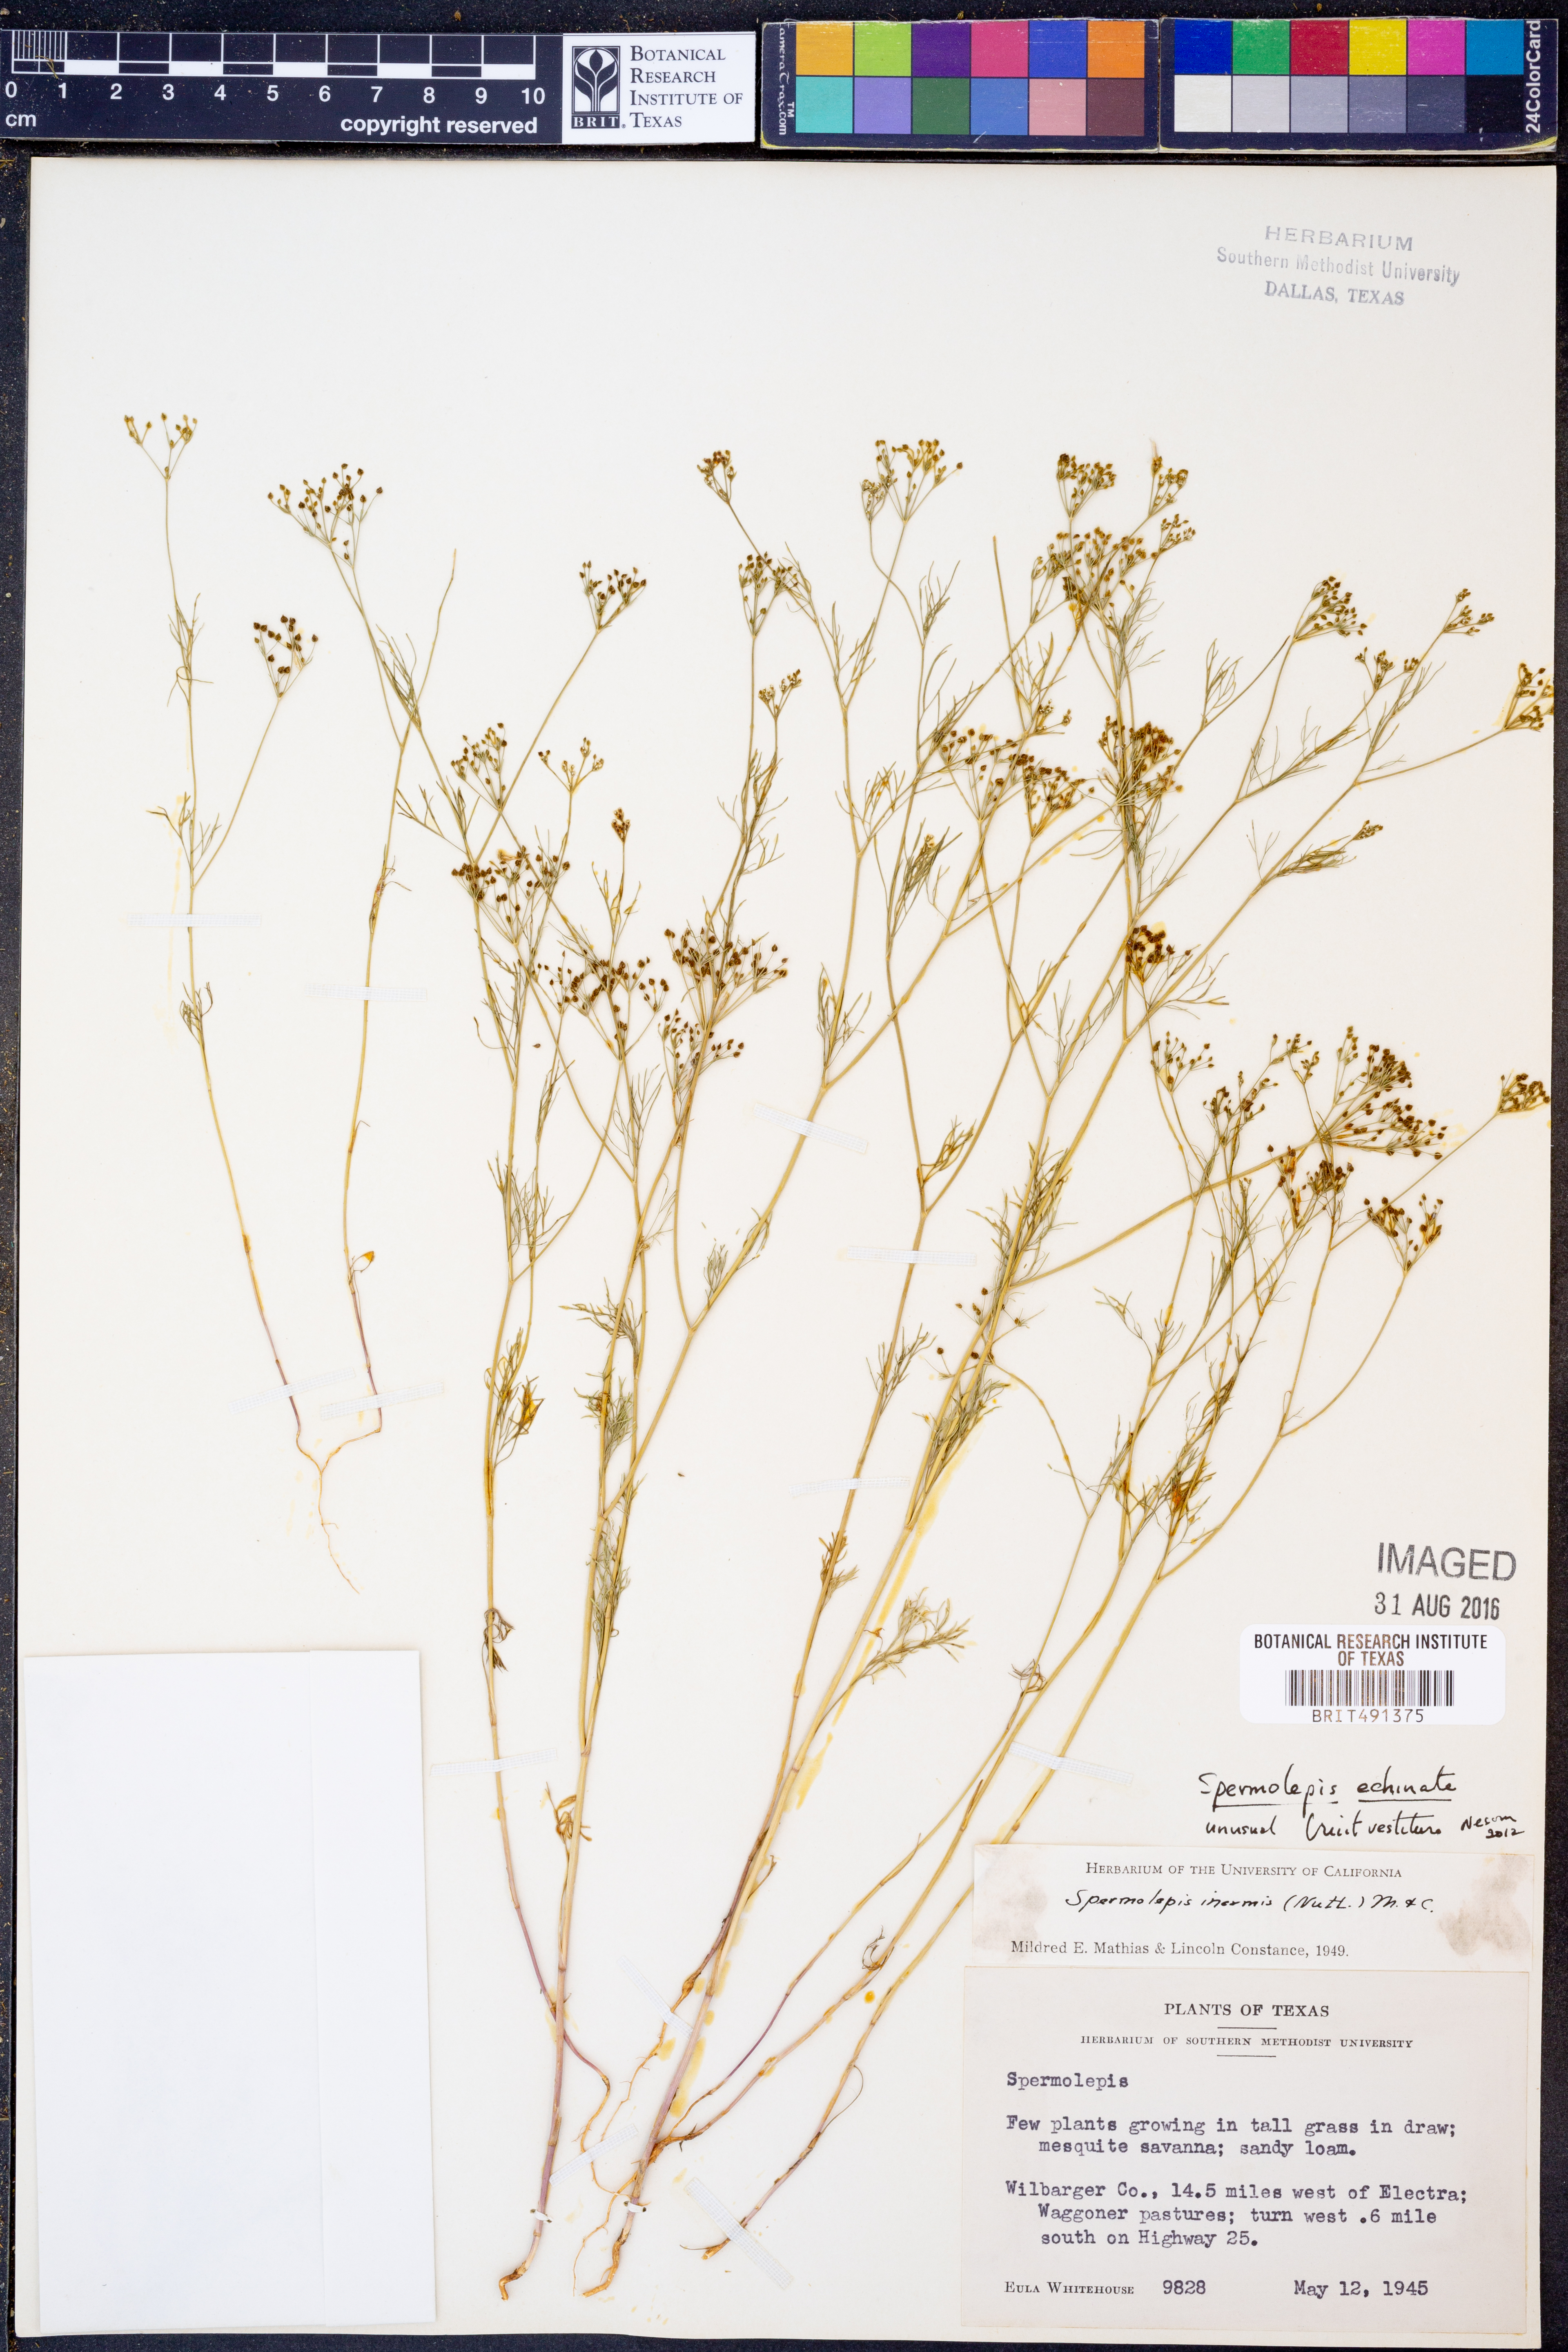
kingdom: Plantae
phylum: Tracheophyta
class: Magnoliopsida
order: Apiales
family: Apiaceae
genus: Spermolepis
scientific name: Spermolepis echinata
